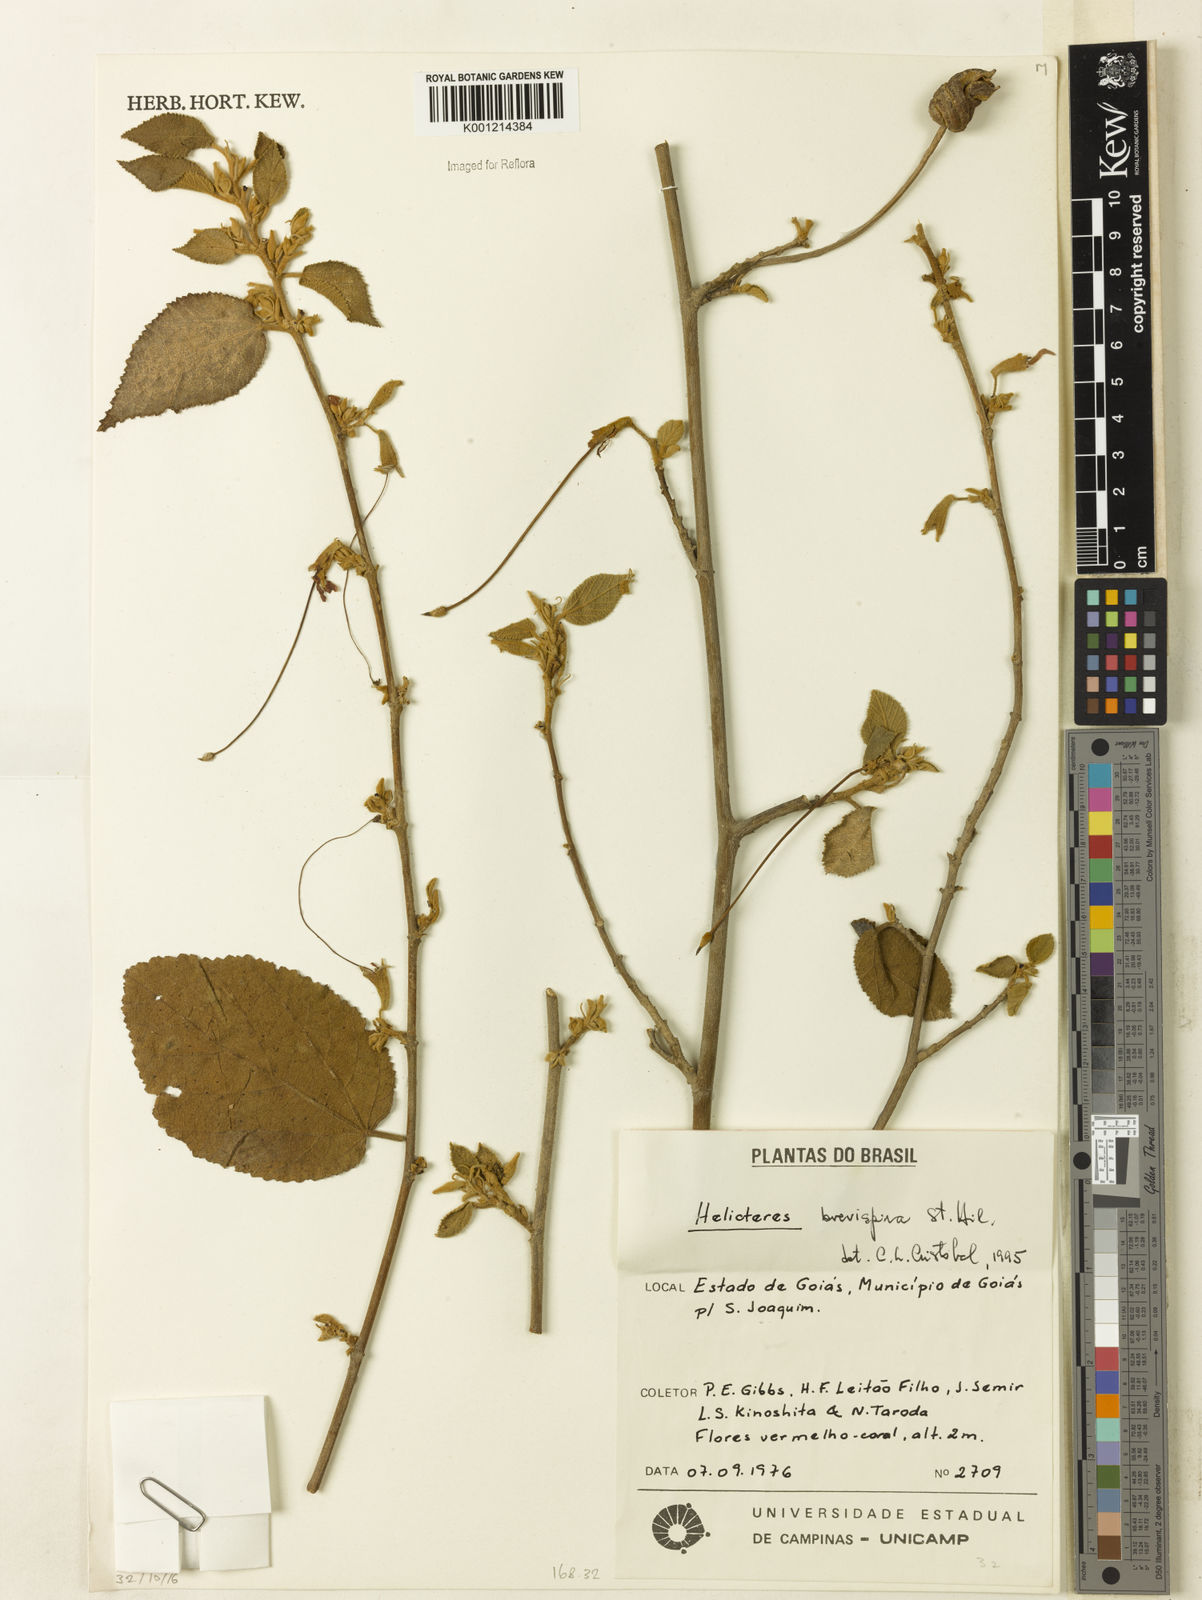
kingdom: Plantae
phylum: Tracheophyta
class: Magnoliopsida
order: Malvales
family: Malvaceae
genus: Helicteres
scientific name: Helicteres
